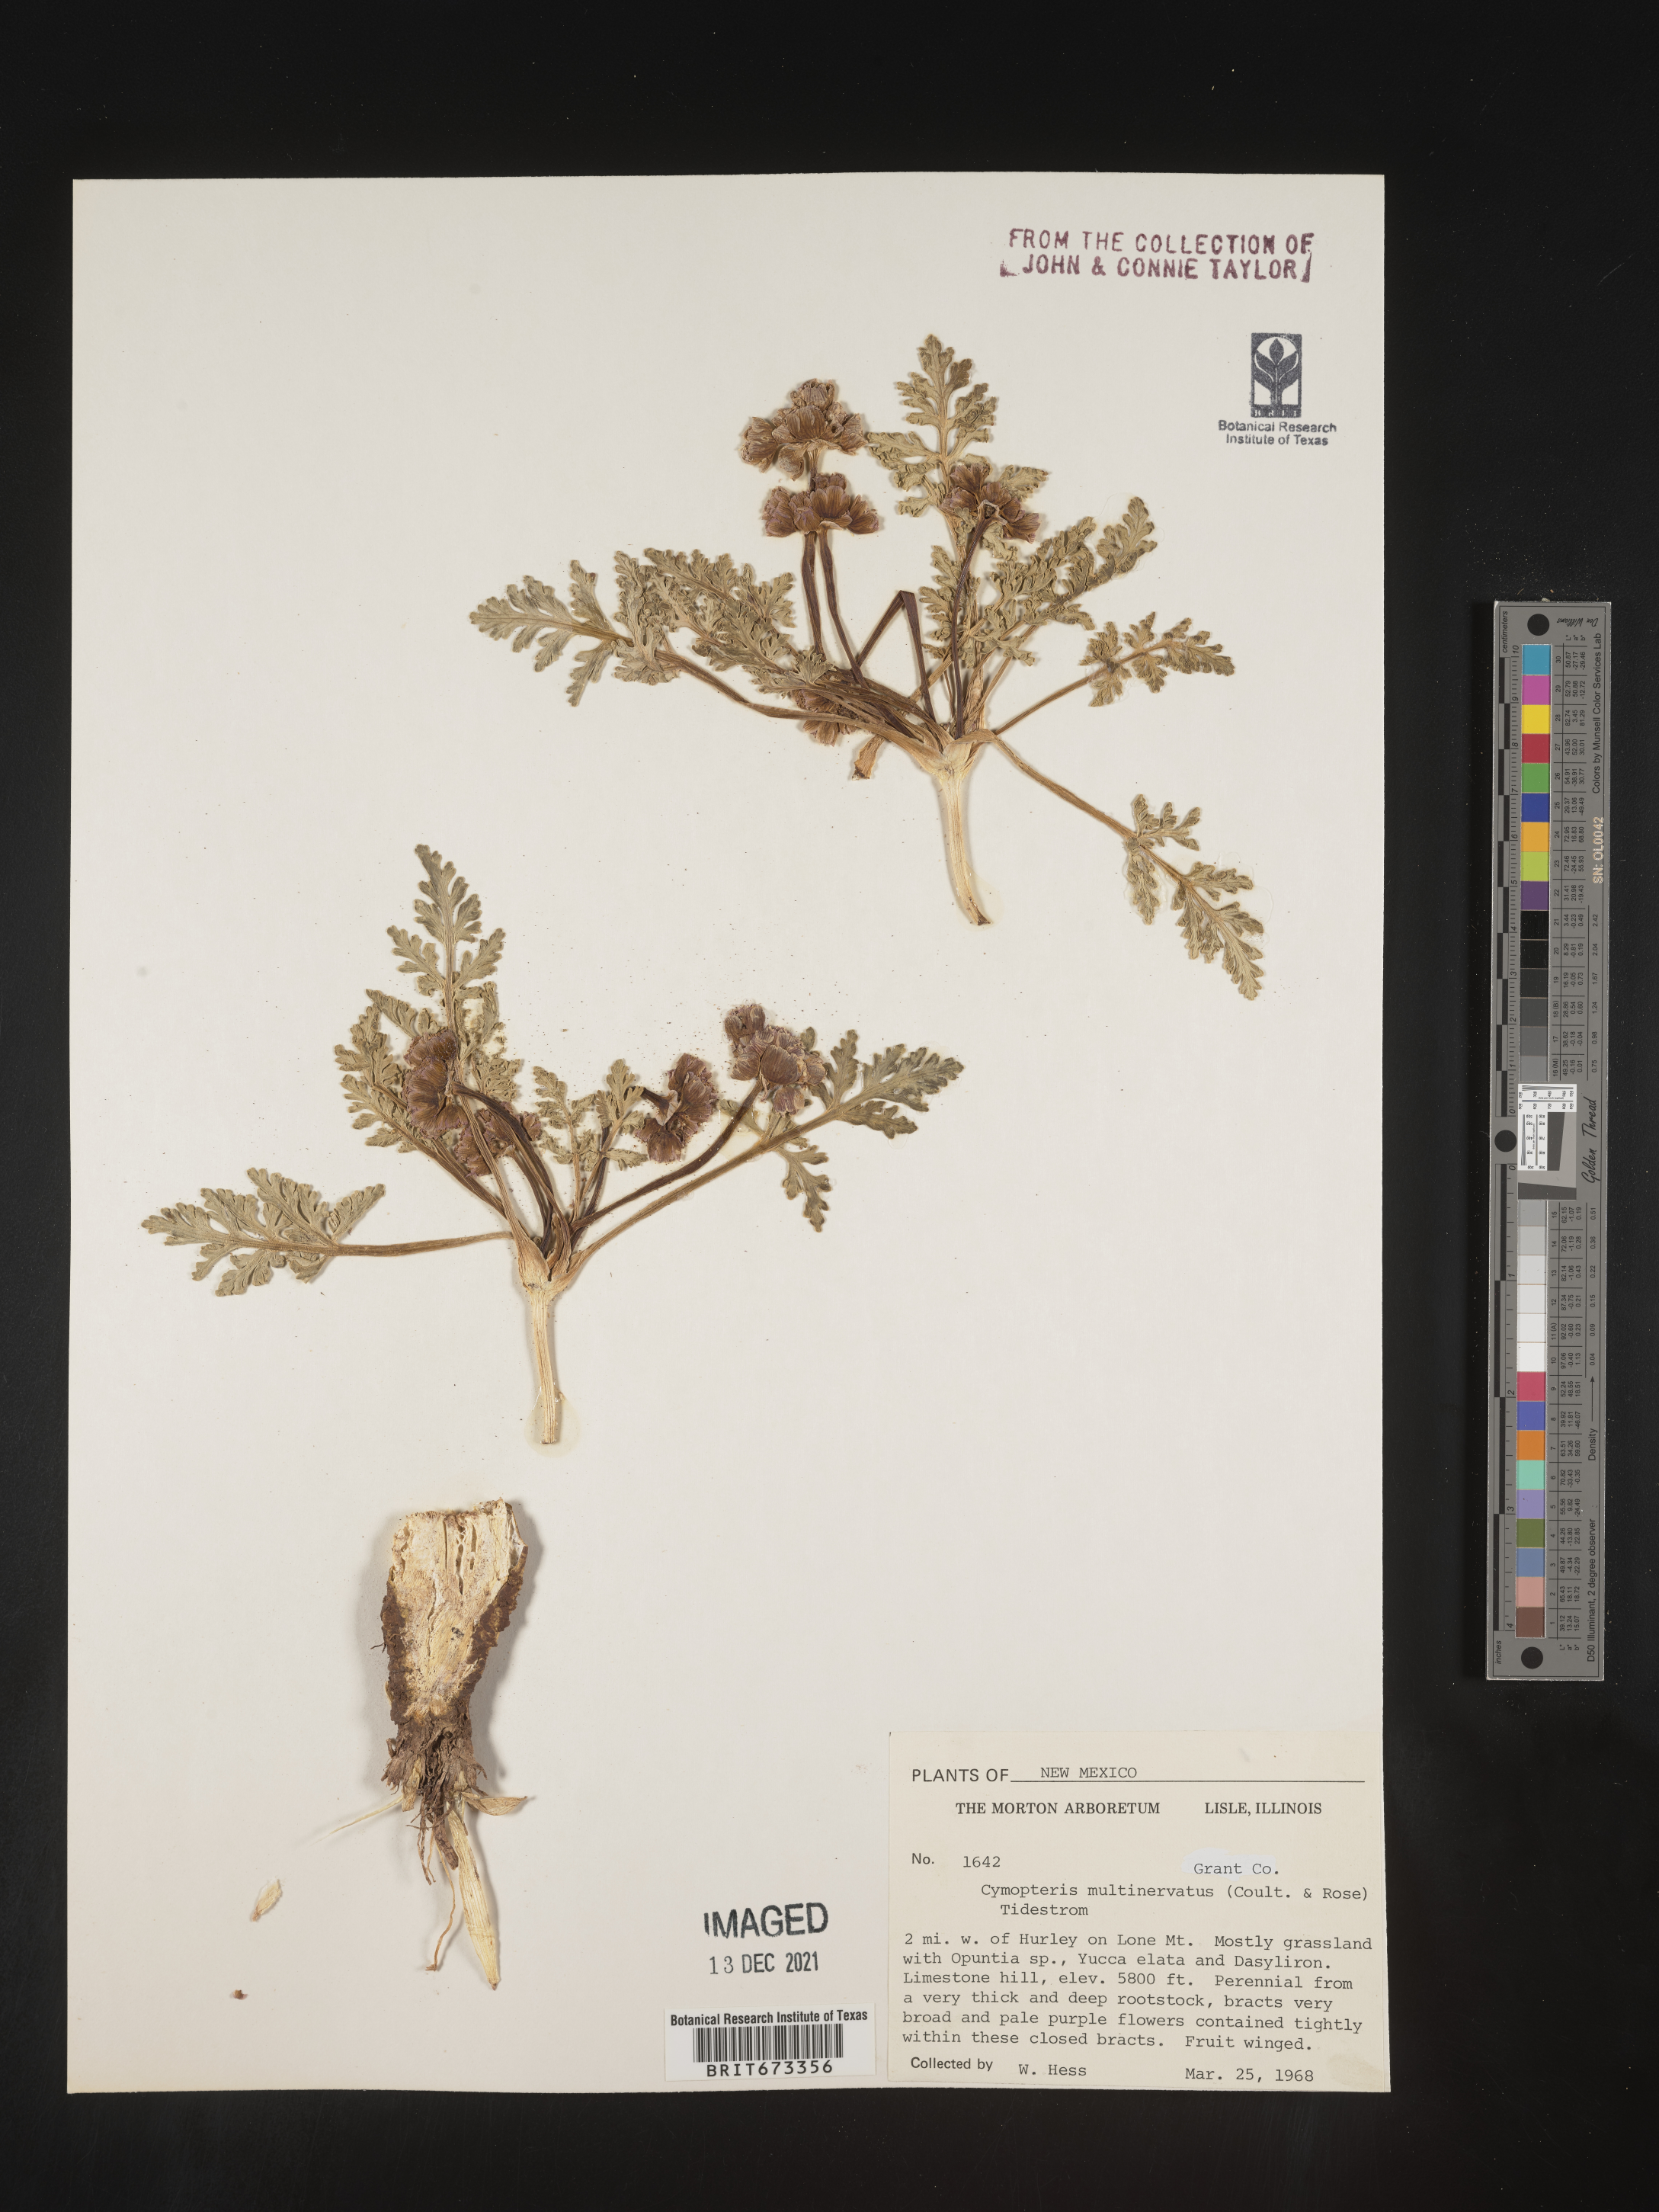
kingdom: Plantae
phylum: Tracheophyta
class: Magnoliopsida
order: Apiales
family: Apiaceae
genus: Vesper
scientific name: Vesper multinervatus
